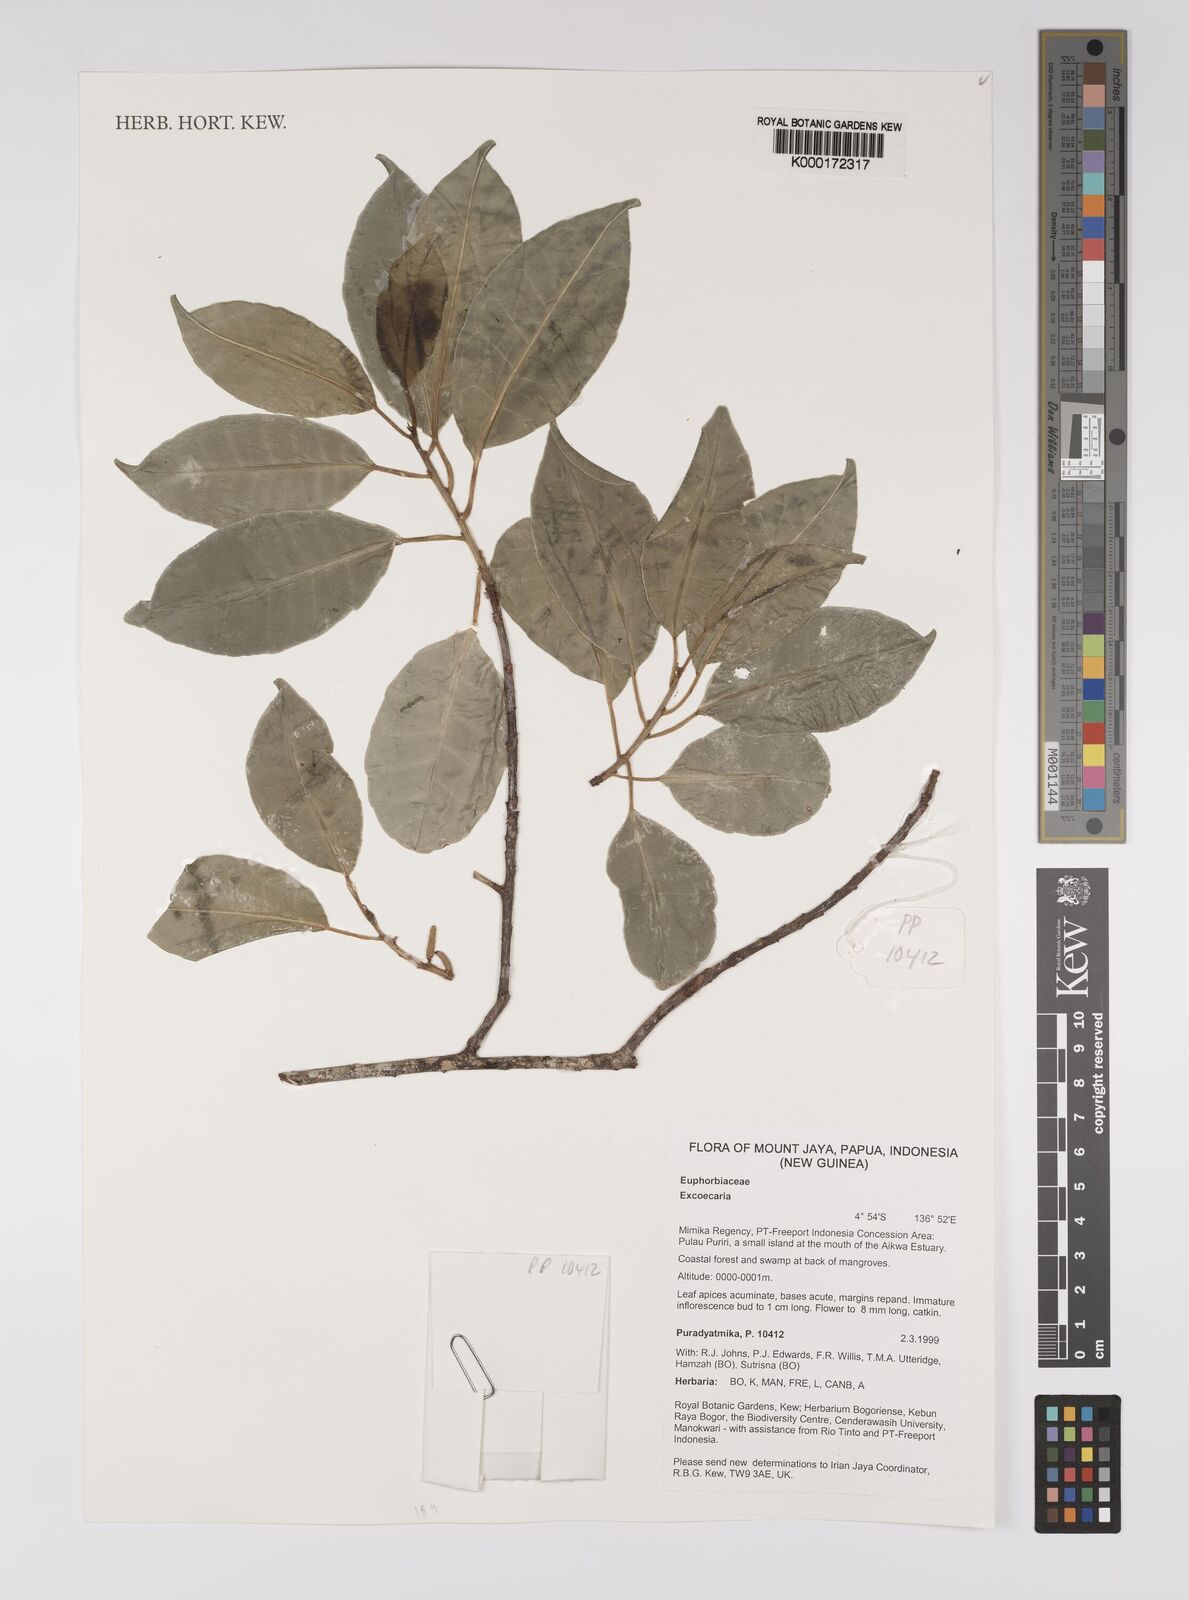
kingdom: Plantae
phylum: Tracheophyta
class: Magnoliopsida
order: Malpighiales
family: Euphorbiaceae
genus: Excoecaria
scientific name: Excoecaria
